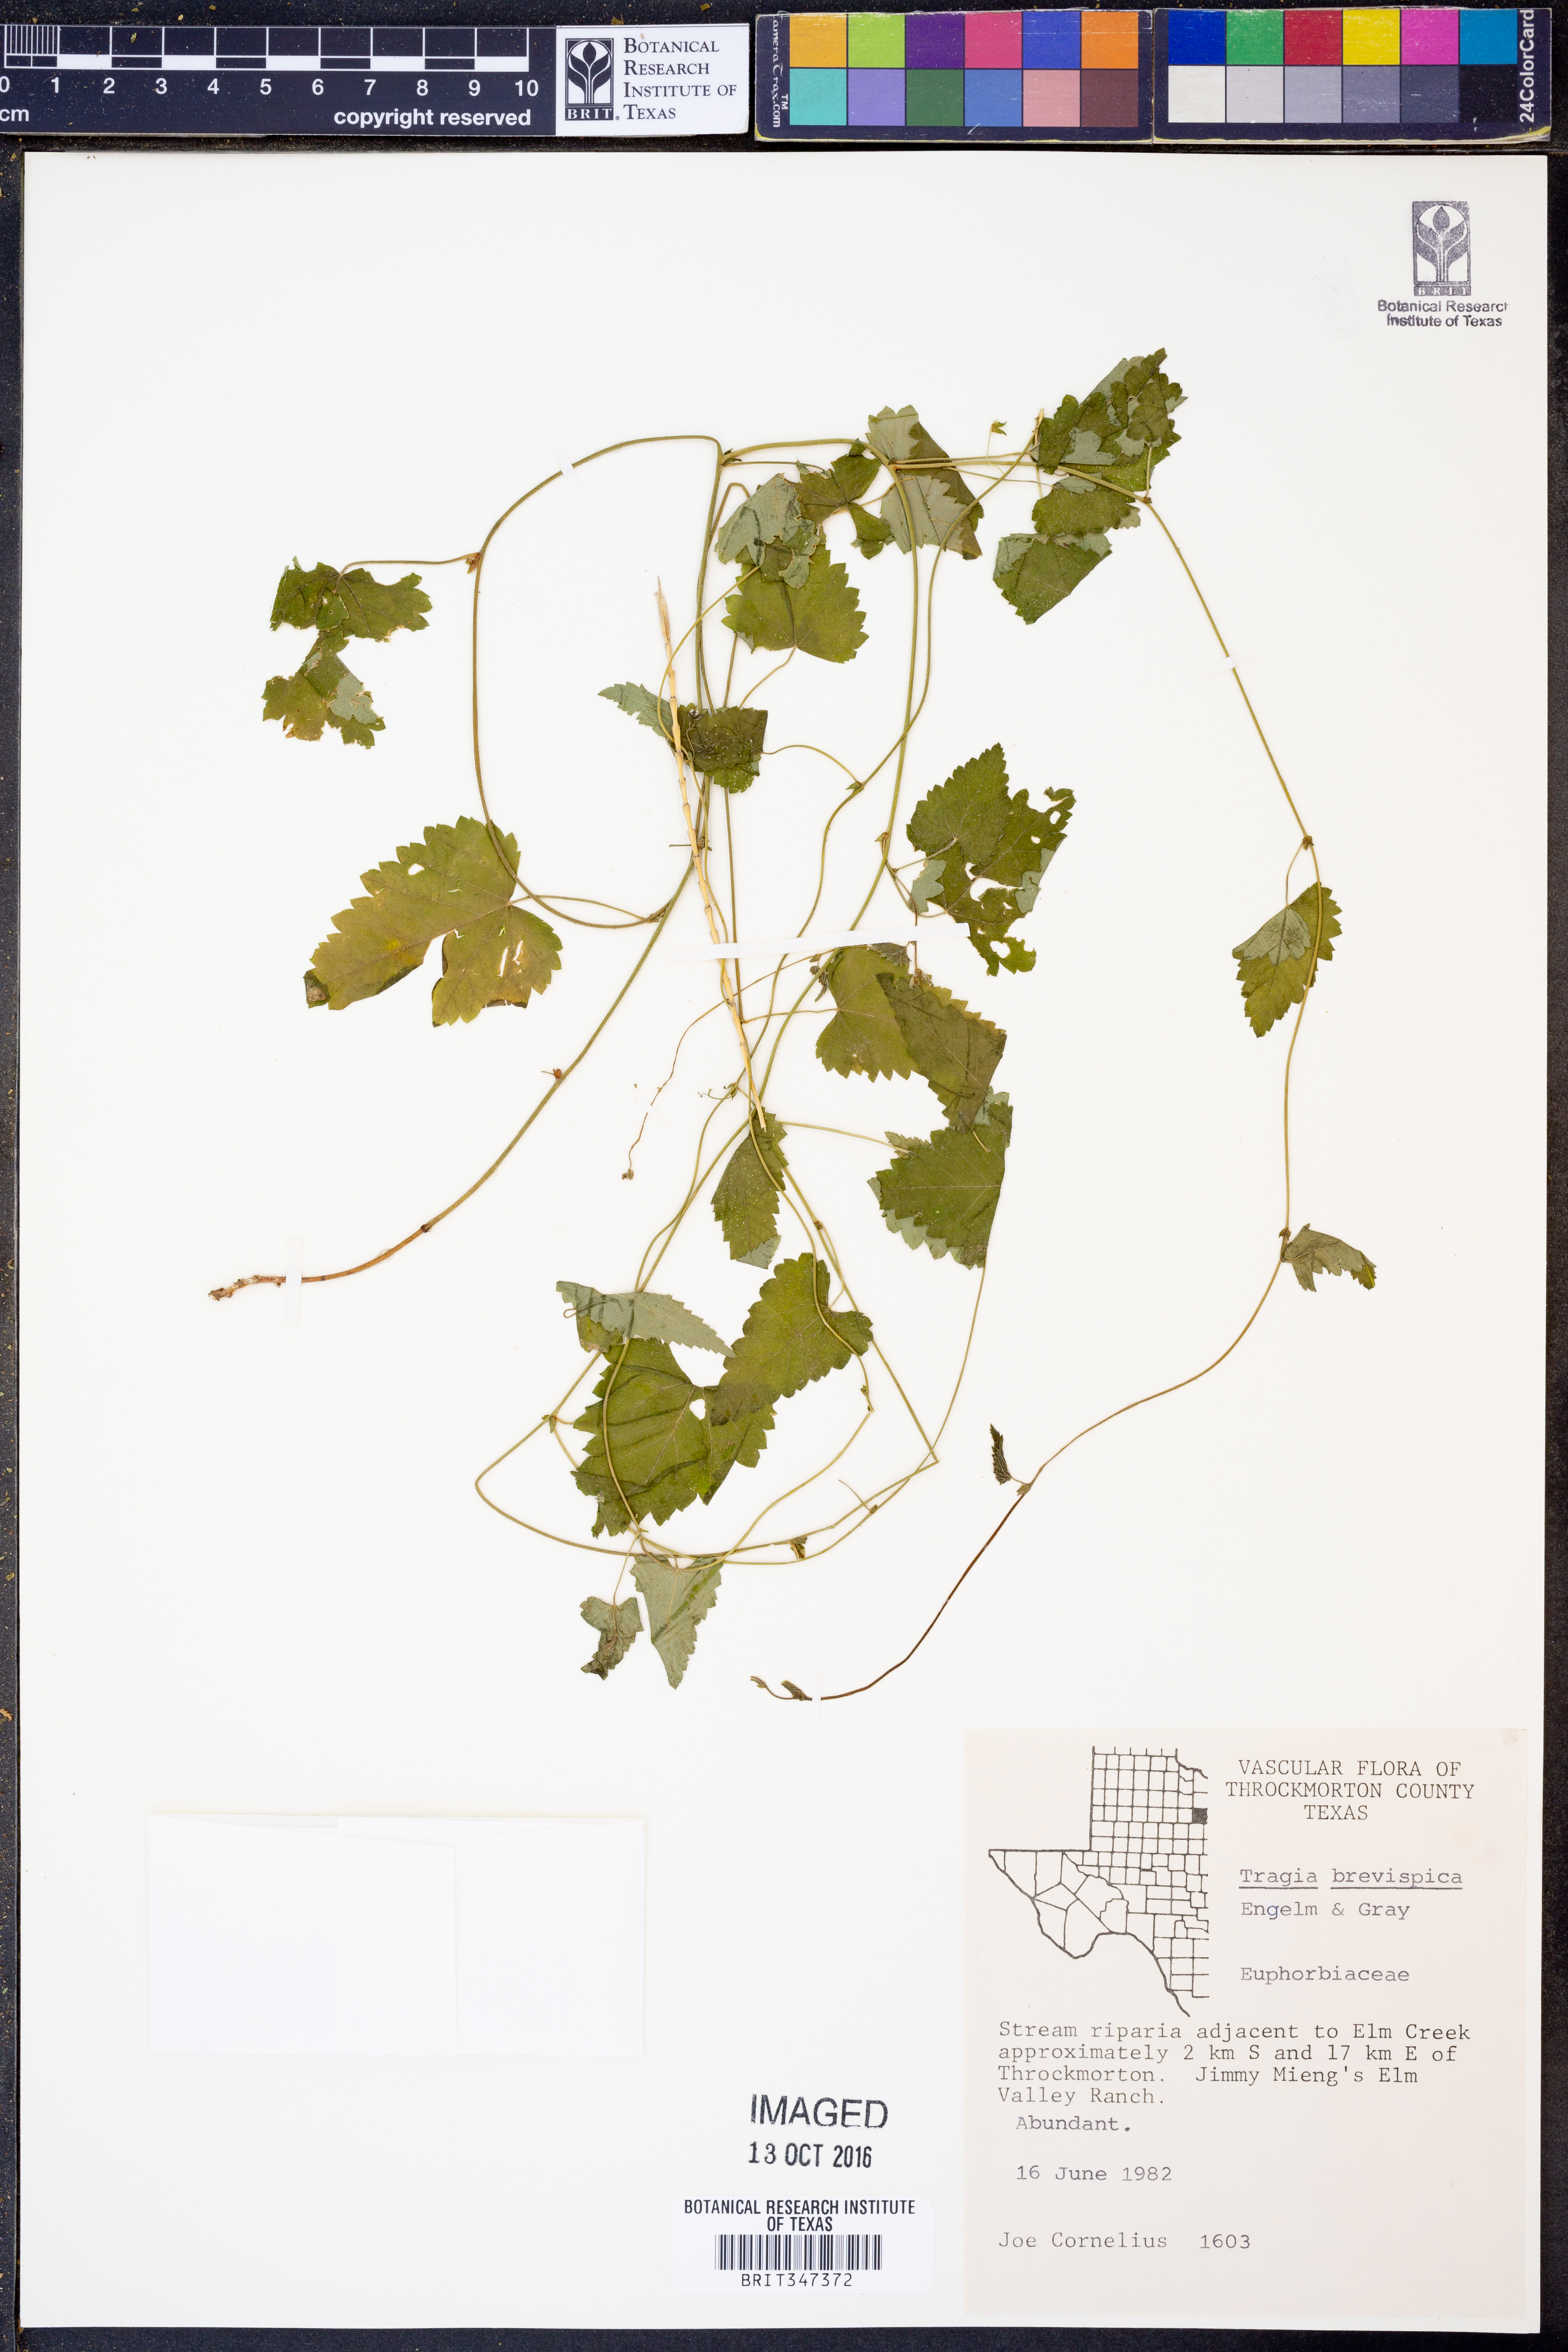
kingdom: Plantae
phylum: Tracheophyta
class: Magnoliopsida
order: Malpighiales
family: Euphorbiaceae
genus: Tragia
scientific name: Tragia brevispica
